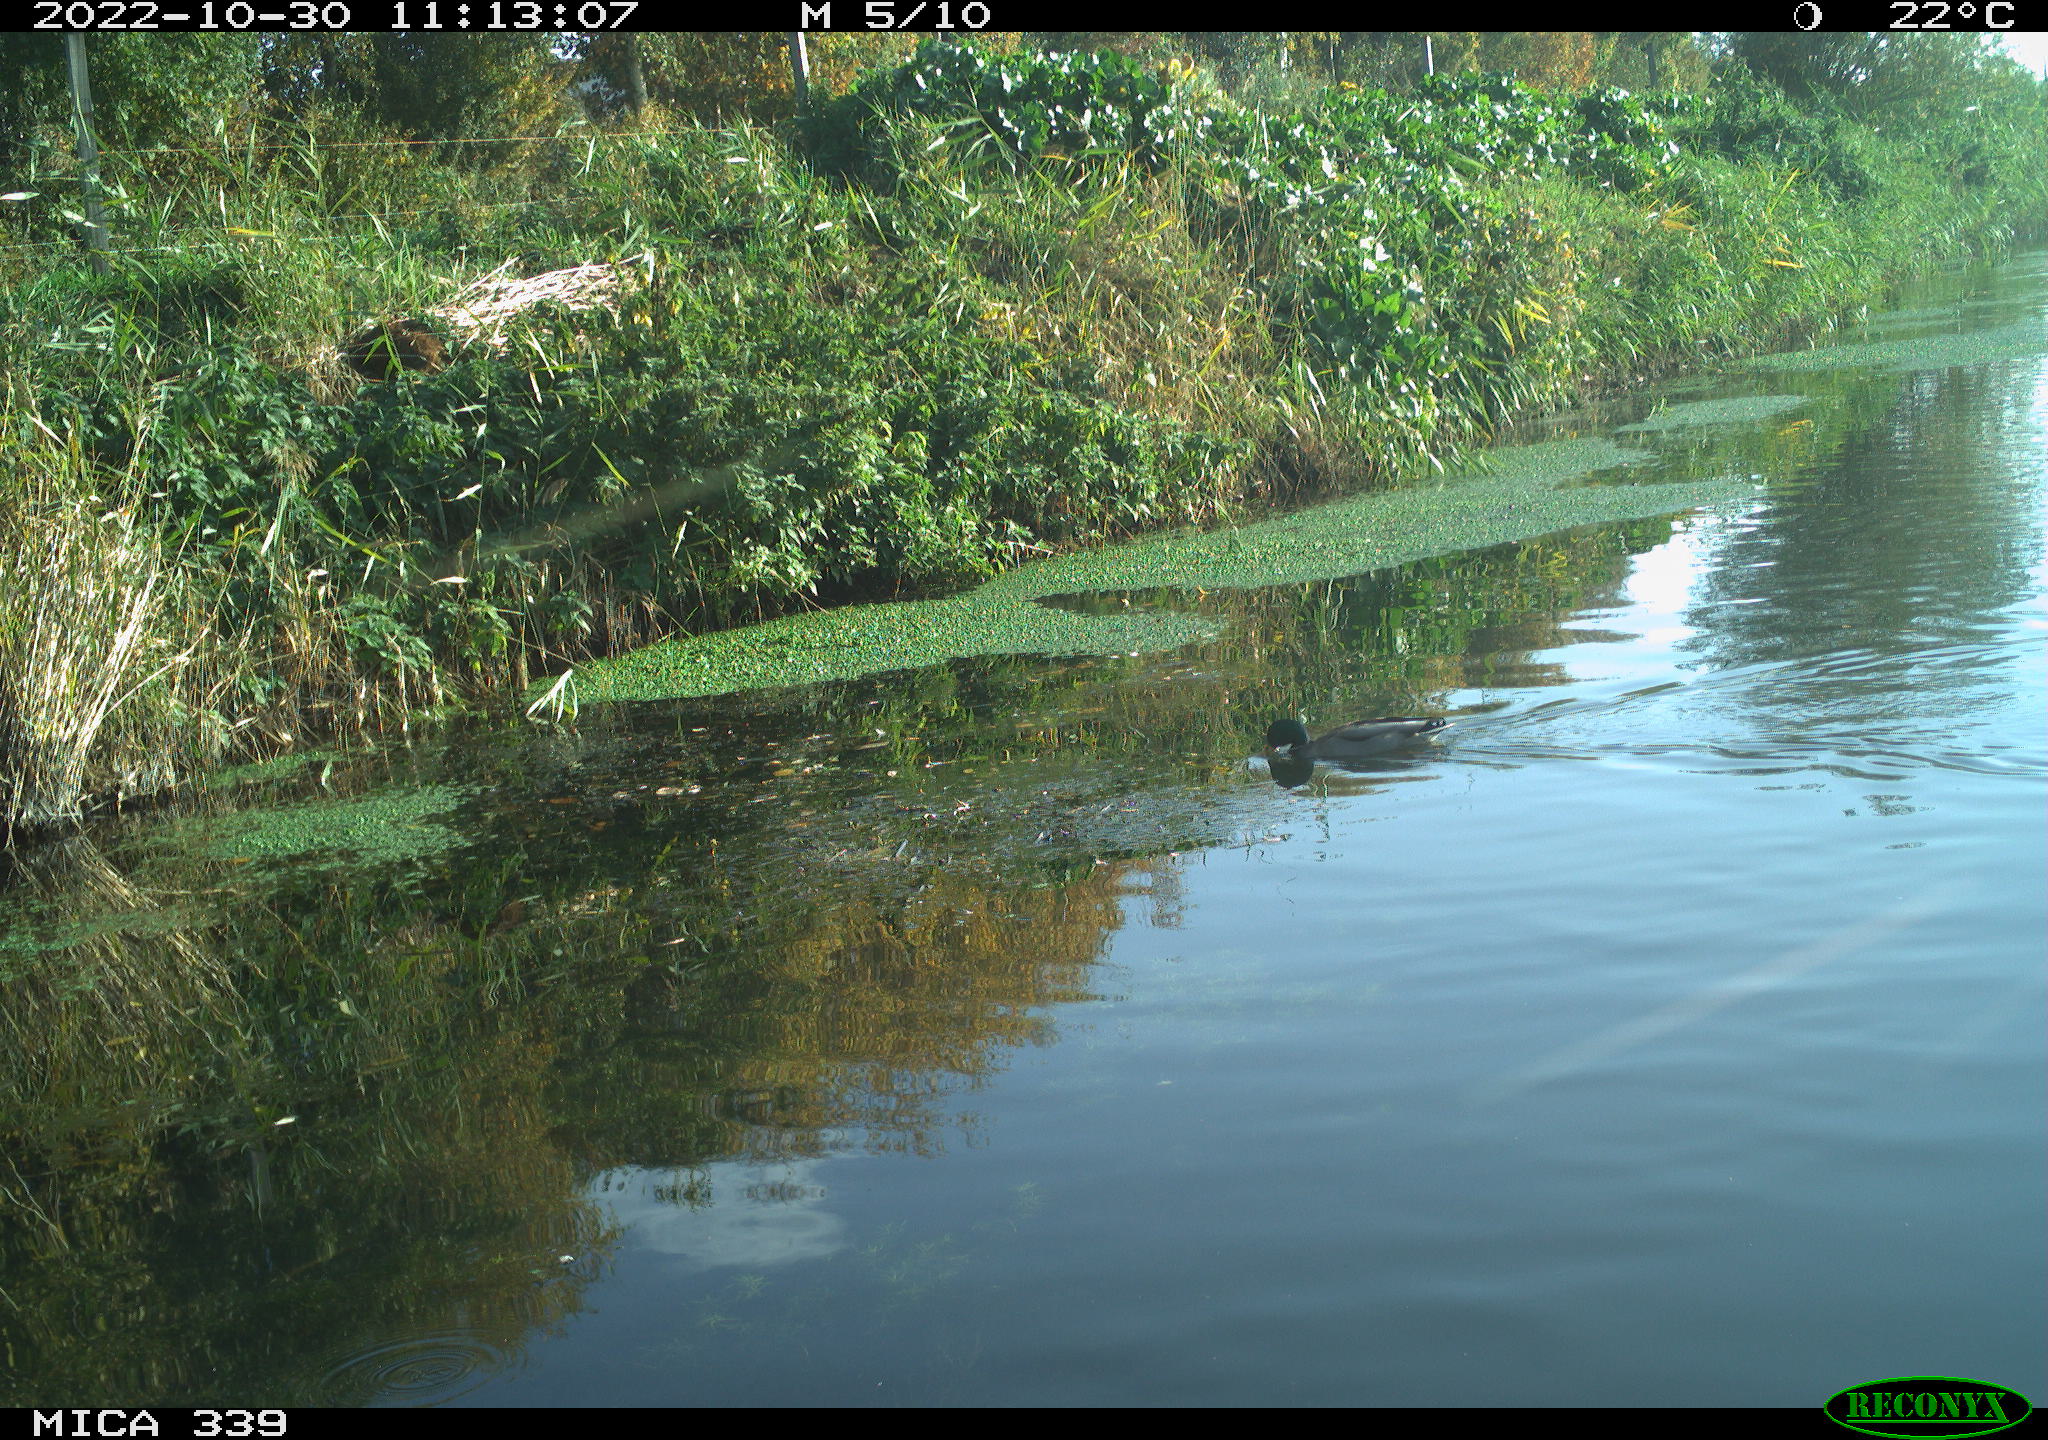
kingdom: Animalia
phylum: Chordata
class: Aves
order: Anseriformes
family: Anatidae
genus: Anas
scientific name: Anas platyrhynchos
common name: Mallard
